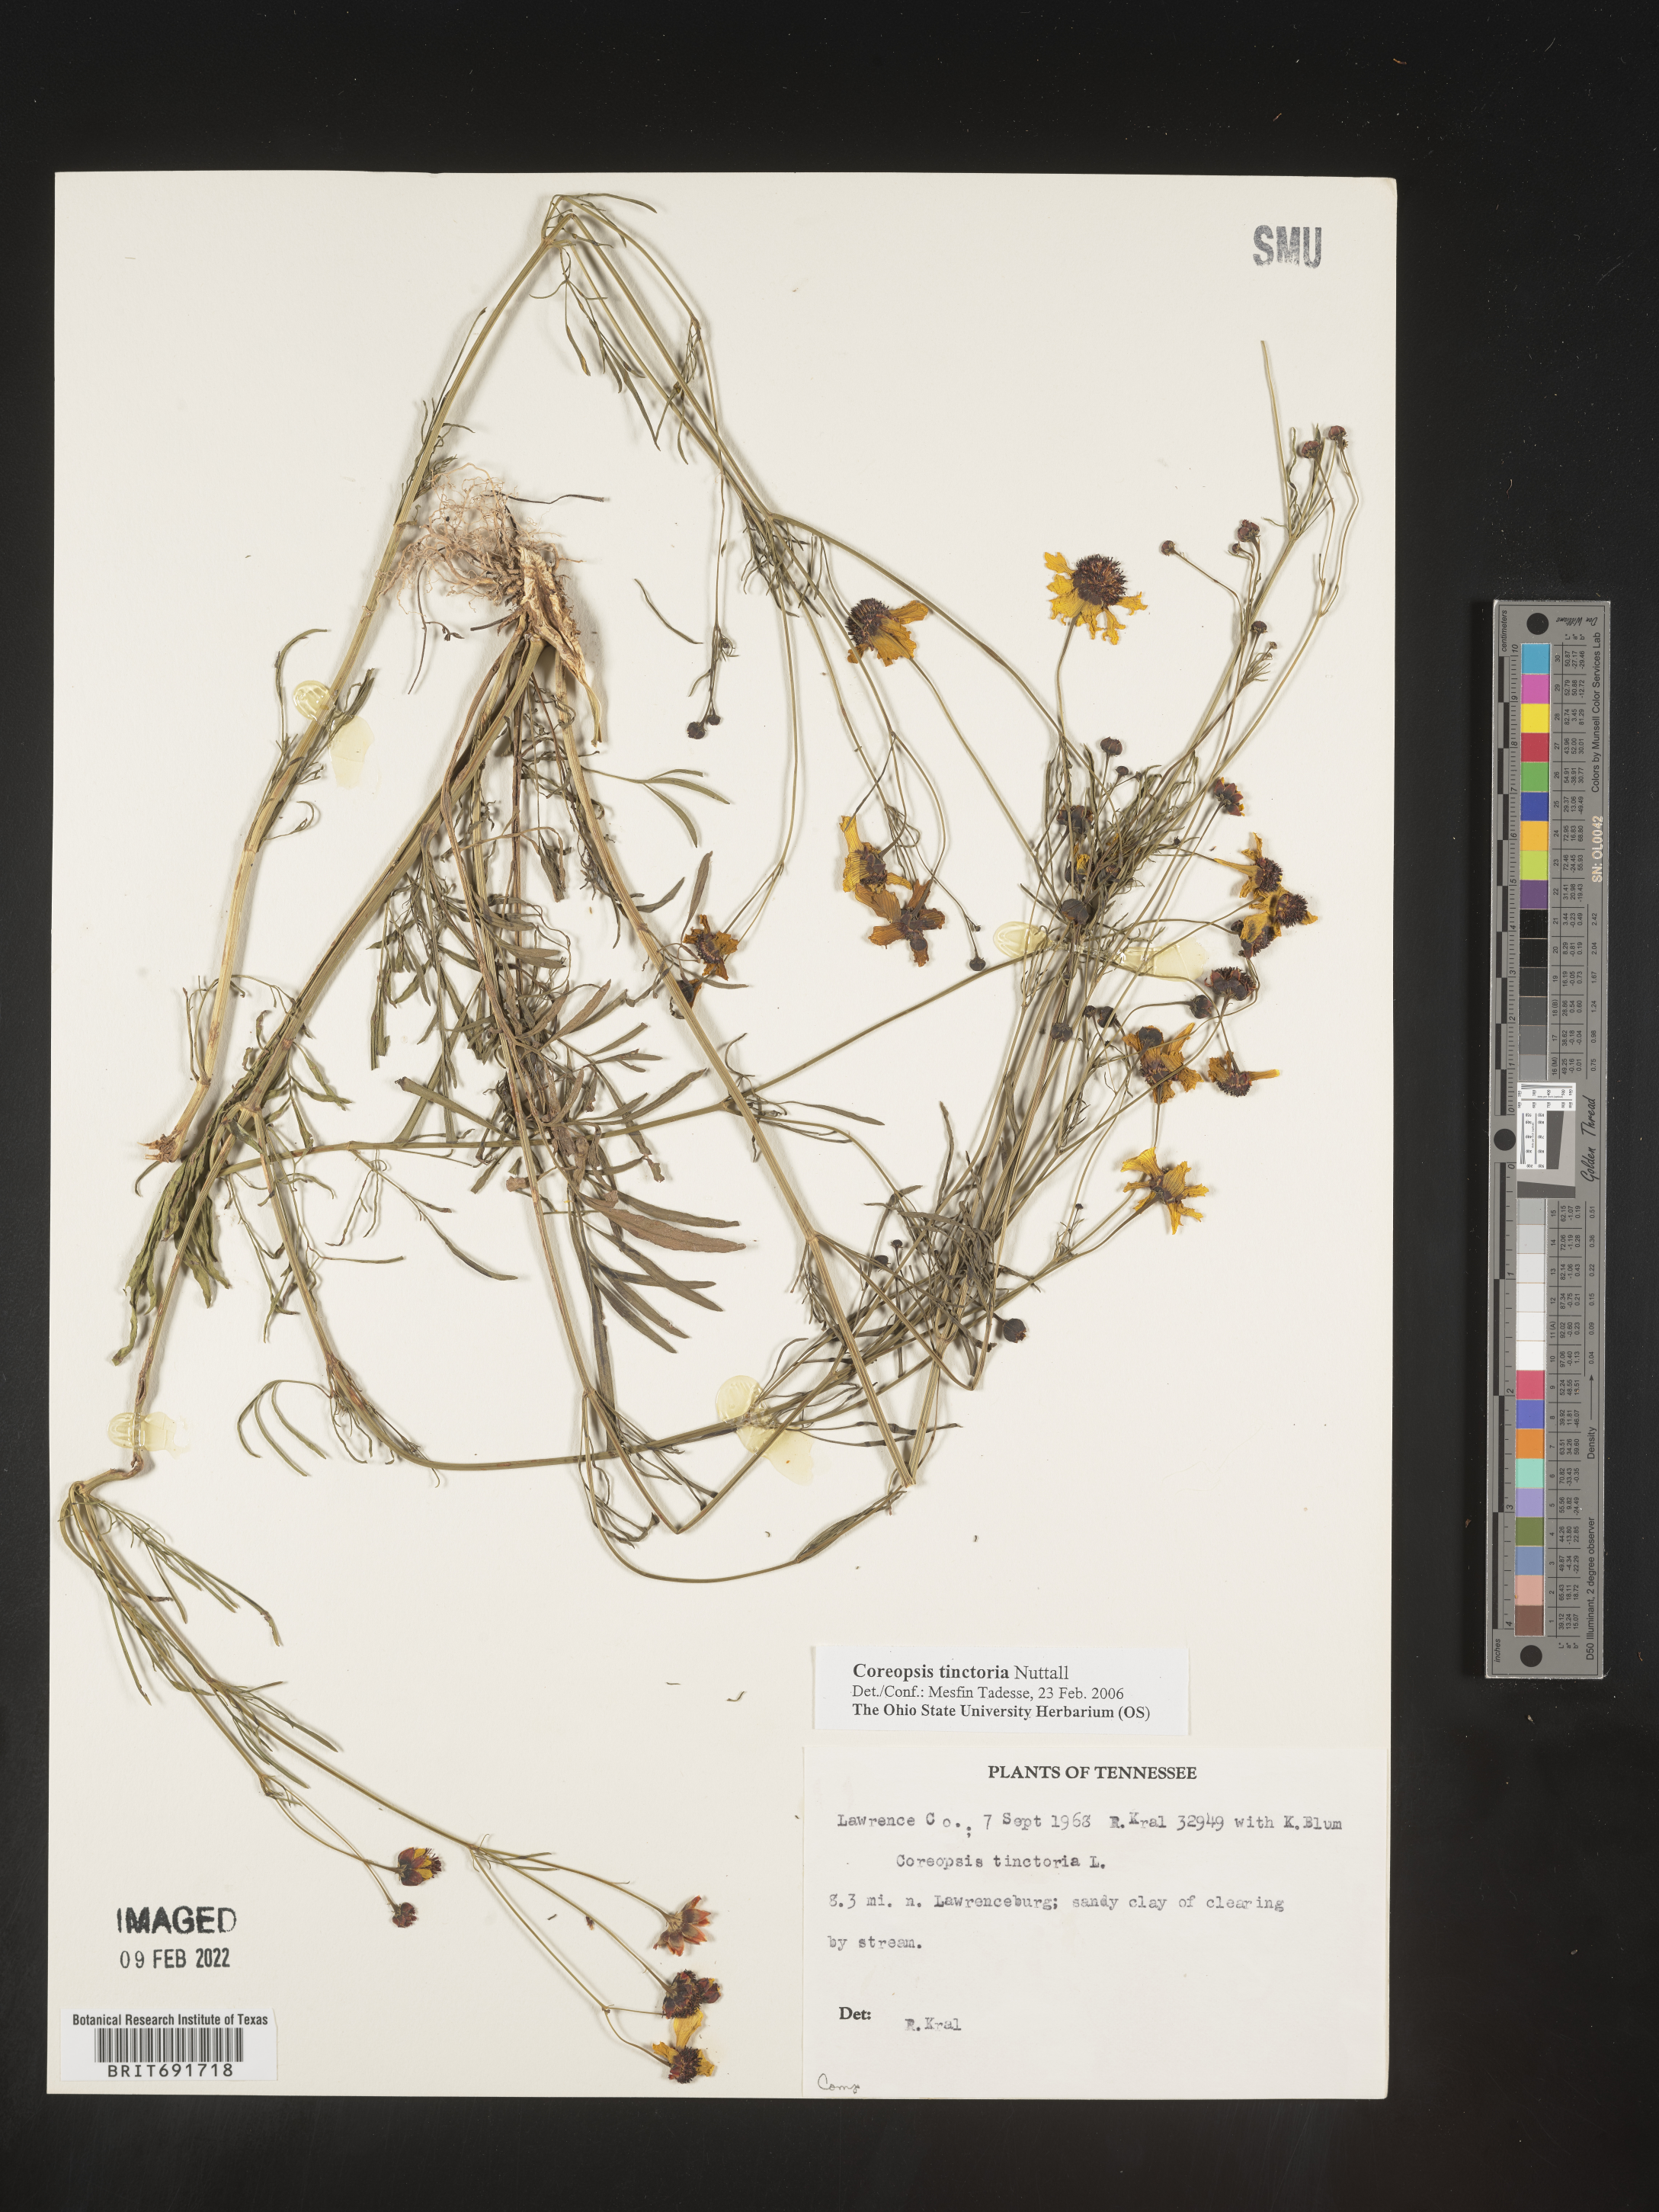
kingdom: Plantae
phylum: Tracheophyta
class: Magnoliopsida
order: Asterales
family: Asteraceae
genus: Coreopsis
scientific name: Coreopsis tinctoria
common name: Garden tickseed
